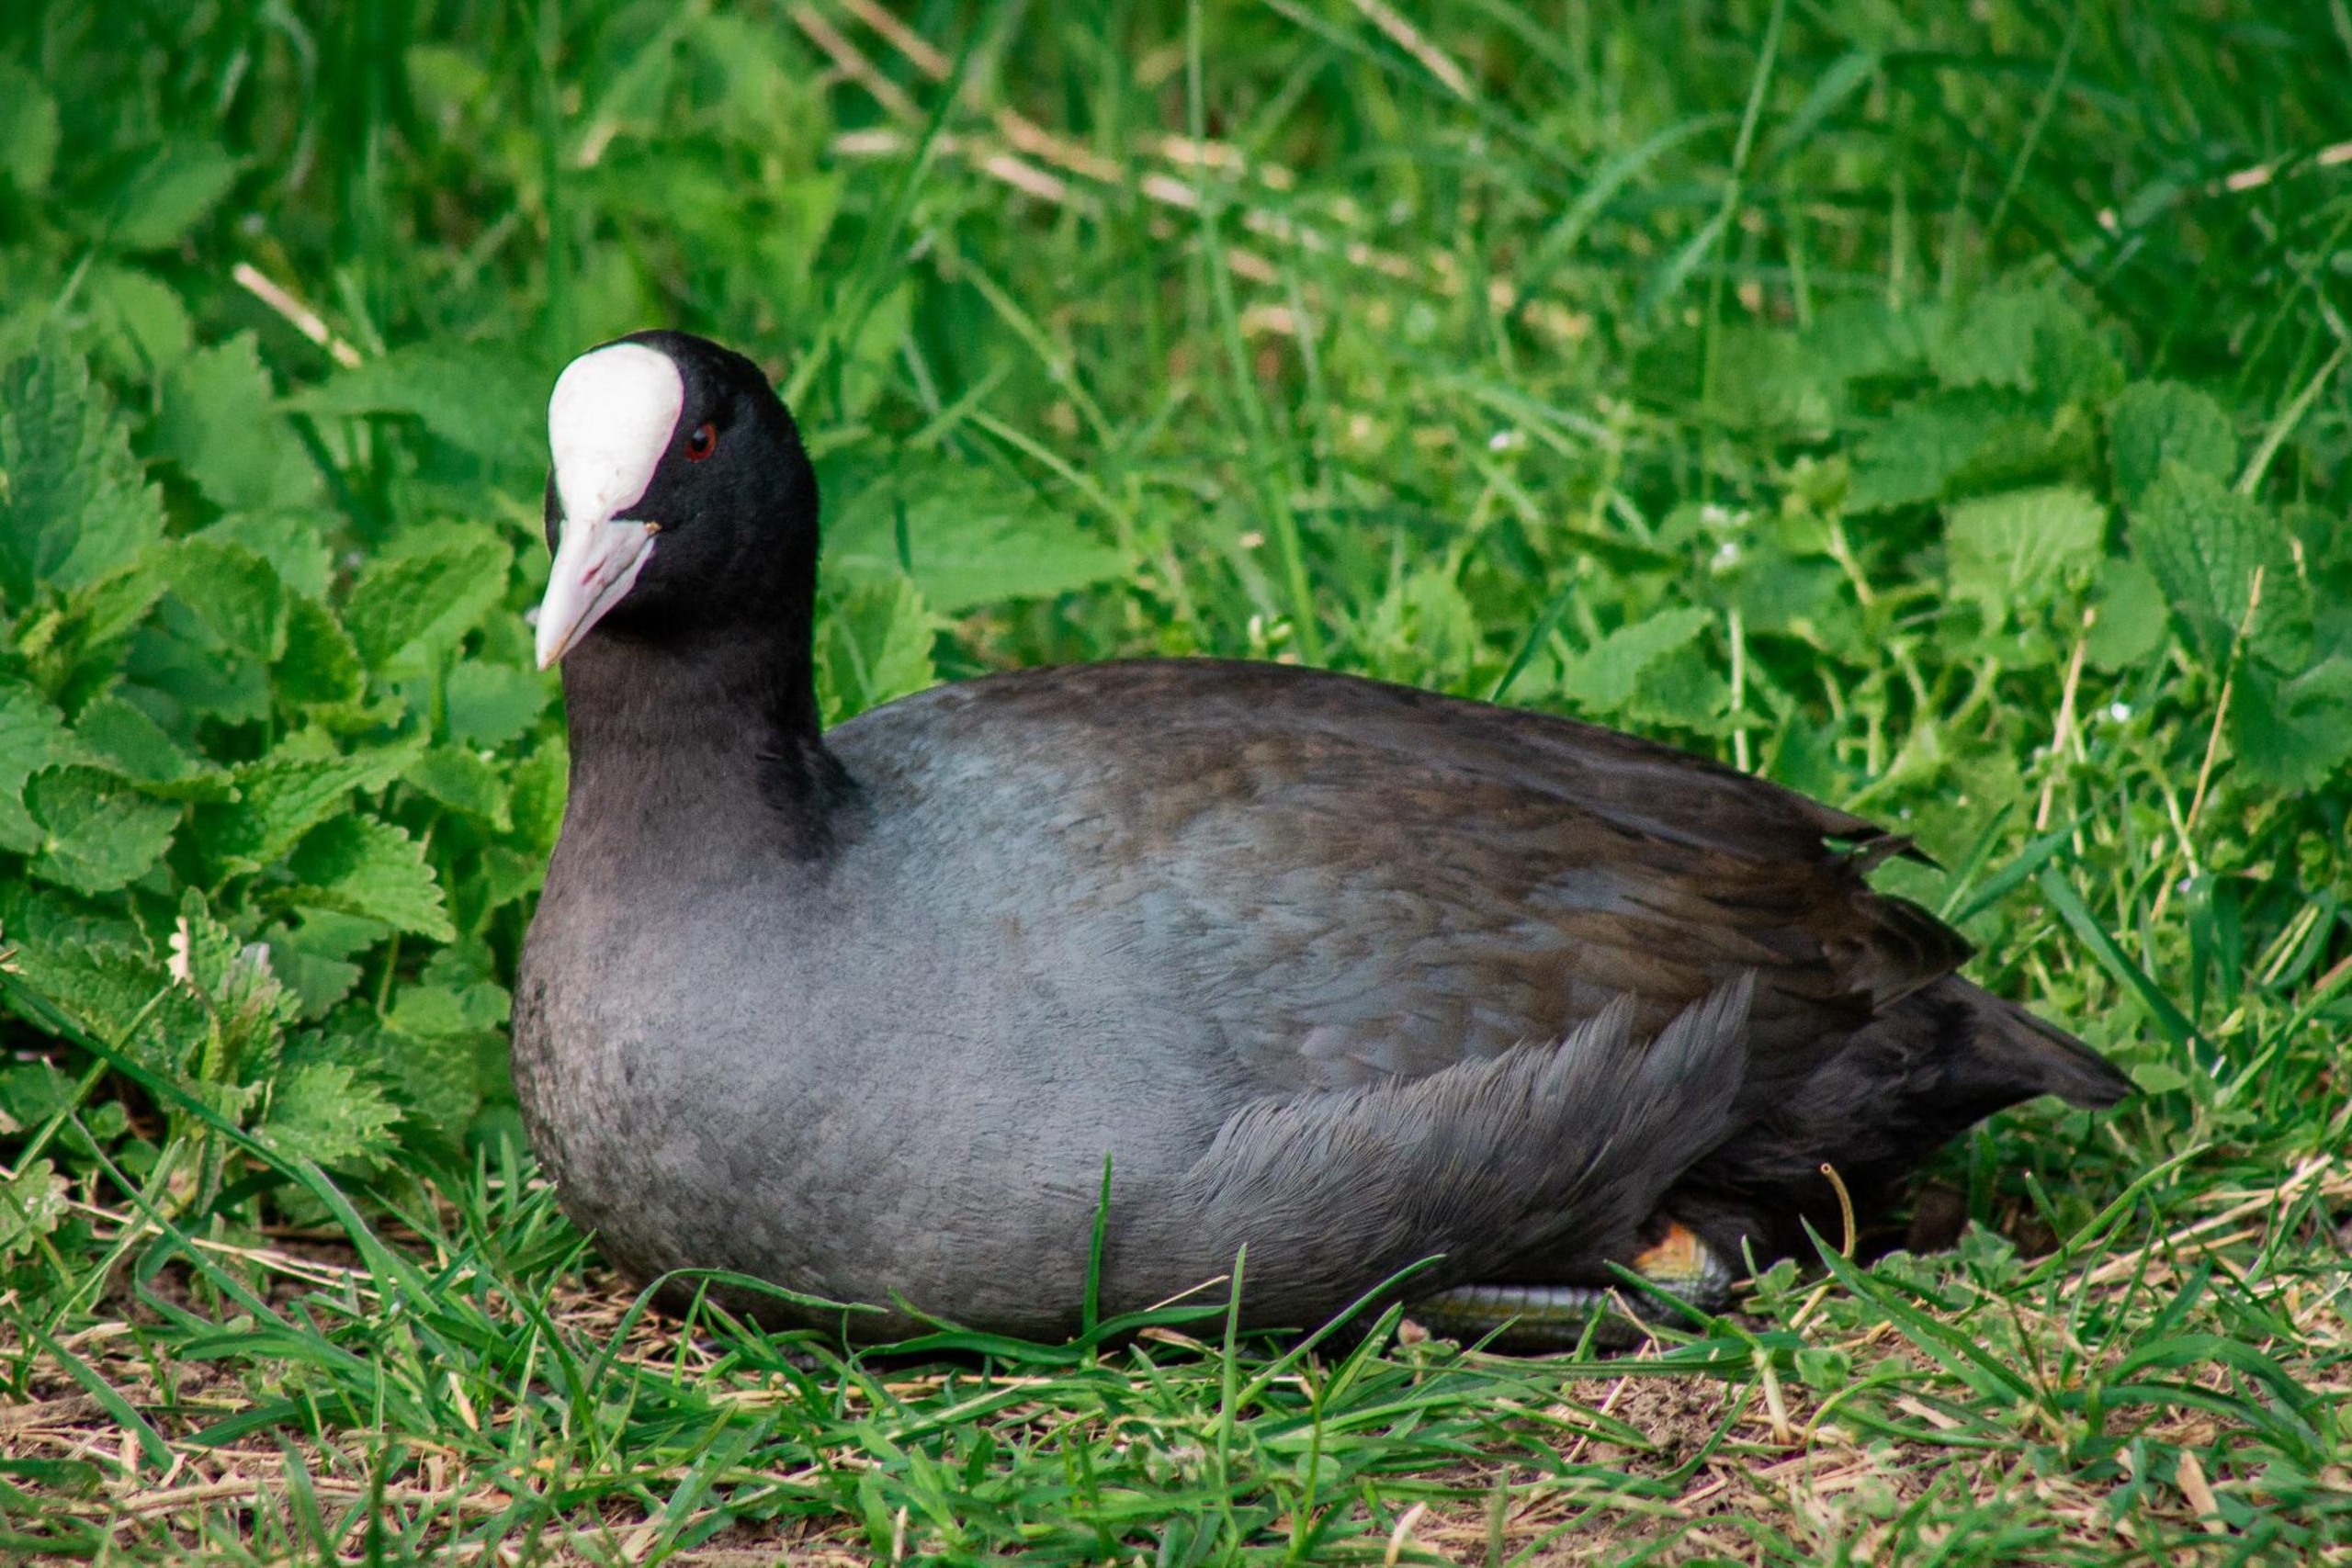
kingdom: Animalia
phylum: Chordata
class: Aves
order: Gruiformes
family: Rallidae
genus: Fulica
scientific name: Fulica atra
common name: Blishøne
